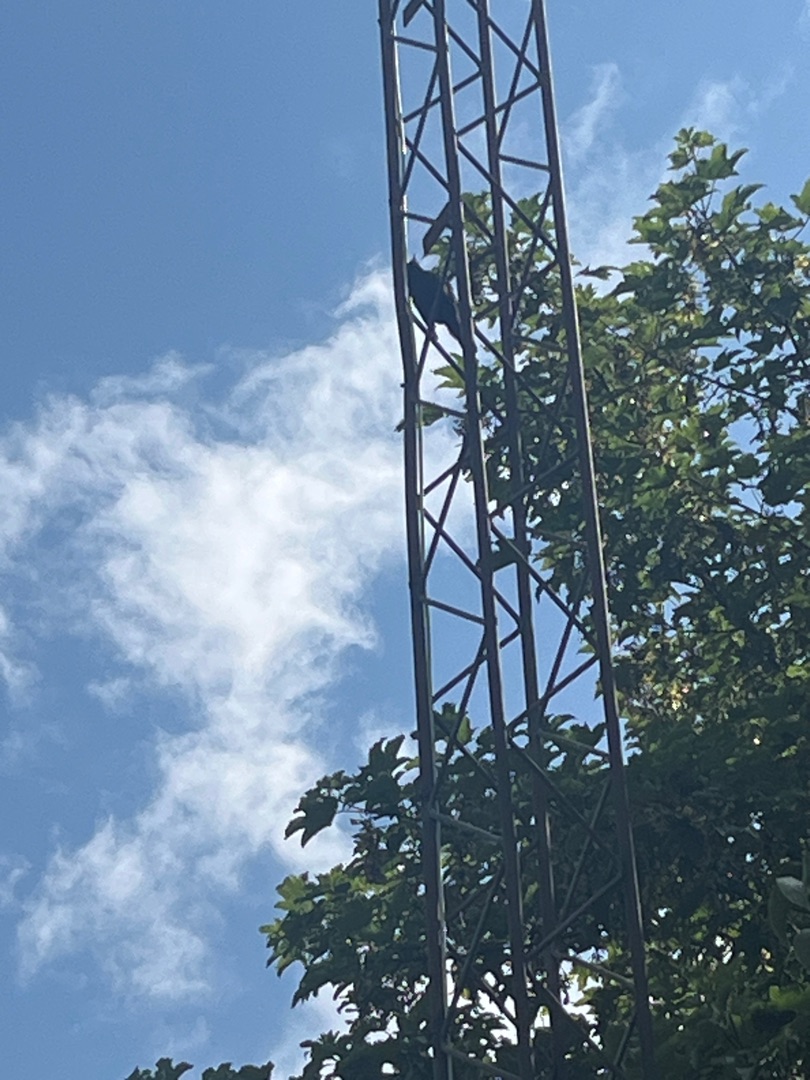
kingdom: Animalia
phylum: Chordata
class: Aves
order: Passeriformes
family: Turdidae
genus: Turdus
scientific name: Turdus merula
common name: Solsort
